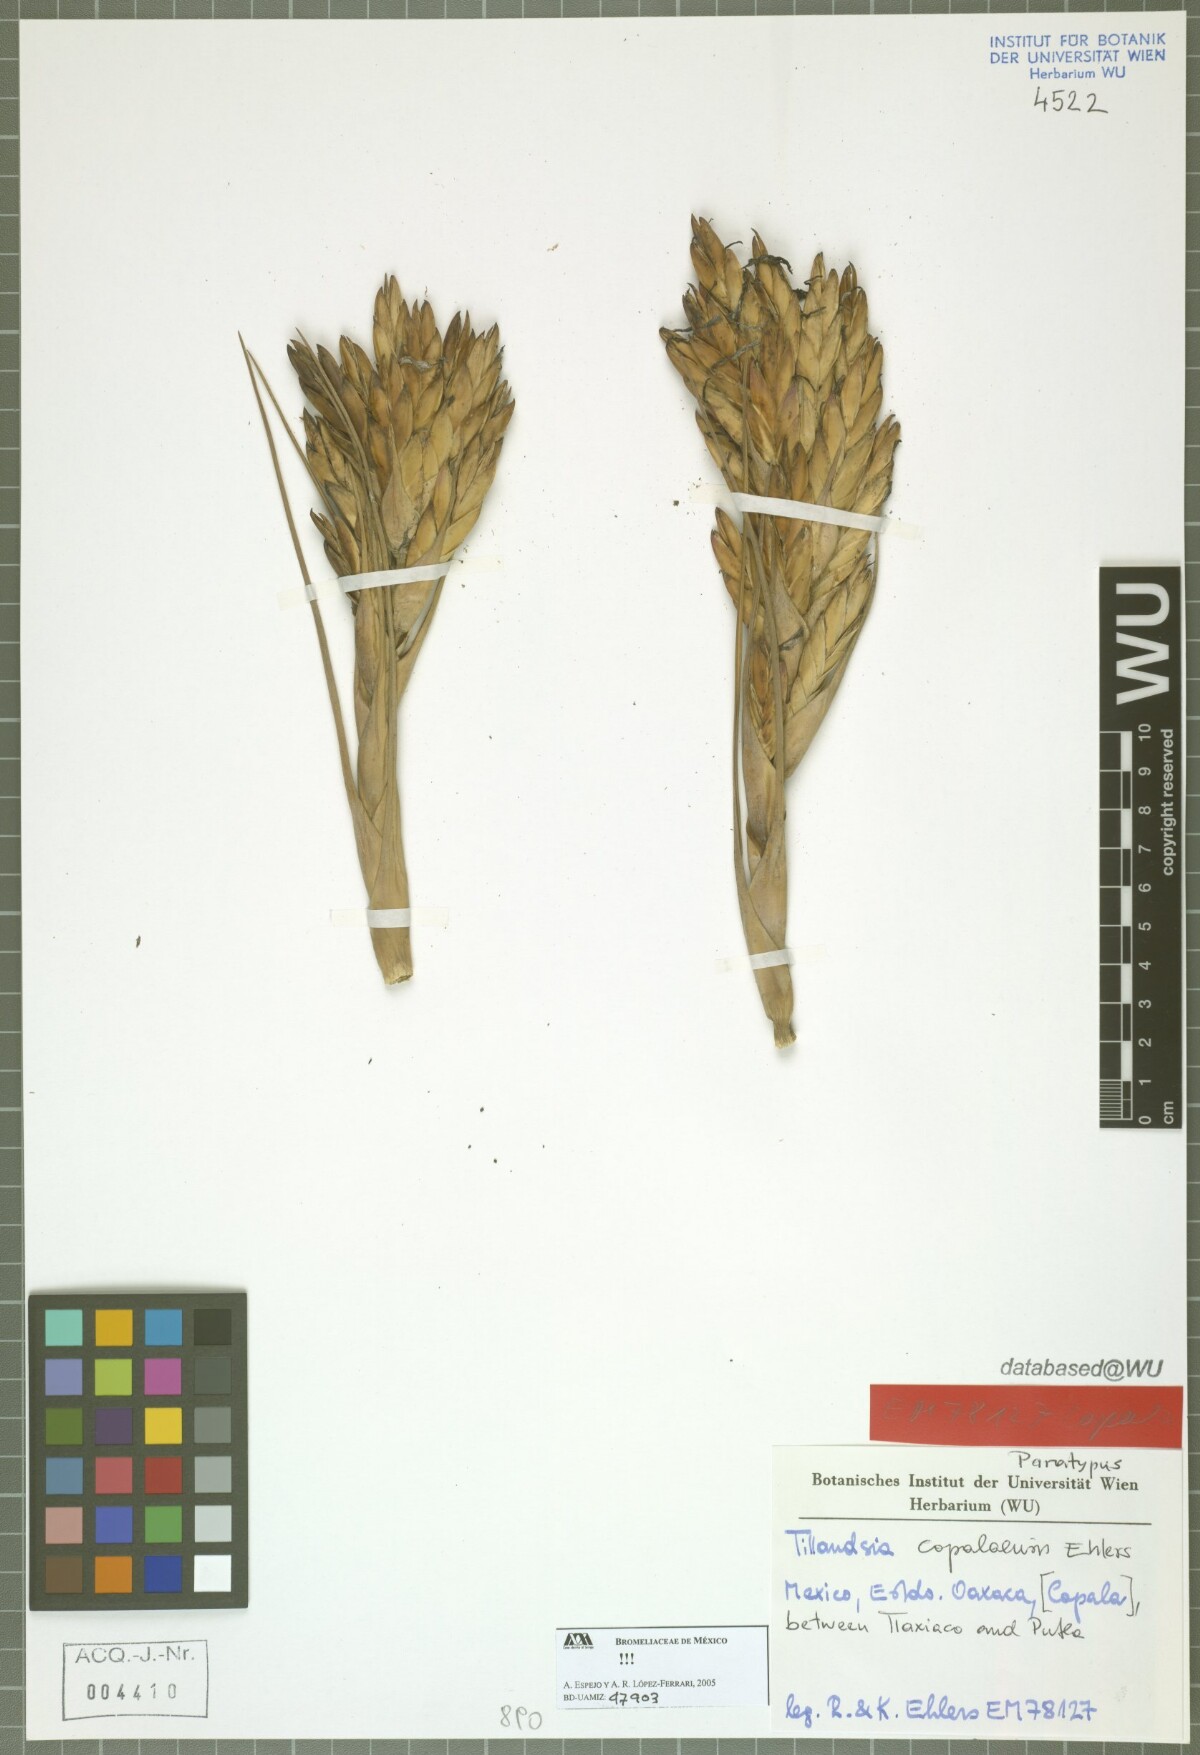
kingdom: Plantae
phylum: Tracheophyta
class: Liliopsida
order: Poales
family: Bromeliaceae
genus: Tillandsia
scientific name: Tillandsia copalaensis
